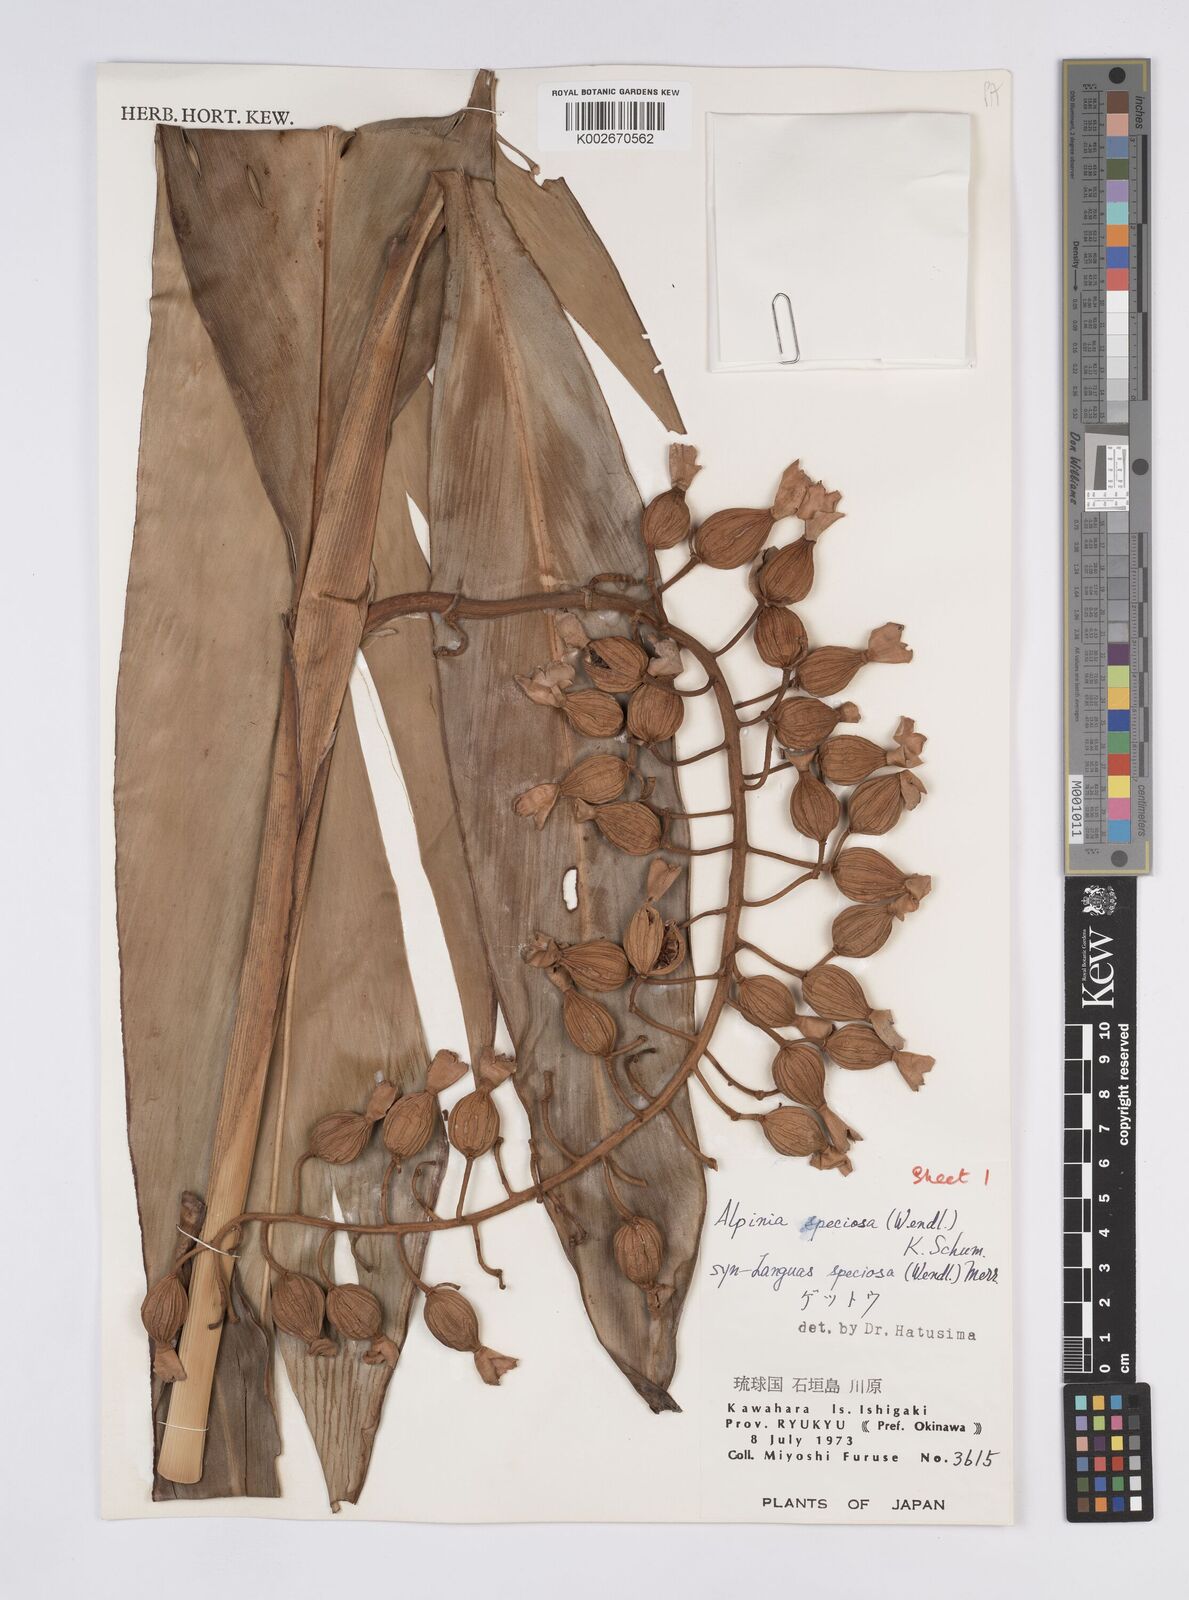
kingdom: Plantae
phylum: Tracheophyta
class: Liliopsida
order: Zingiberales
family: Zingiberaceae
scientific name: Zingiberaceae
